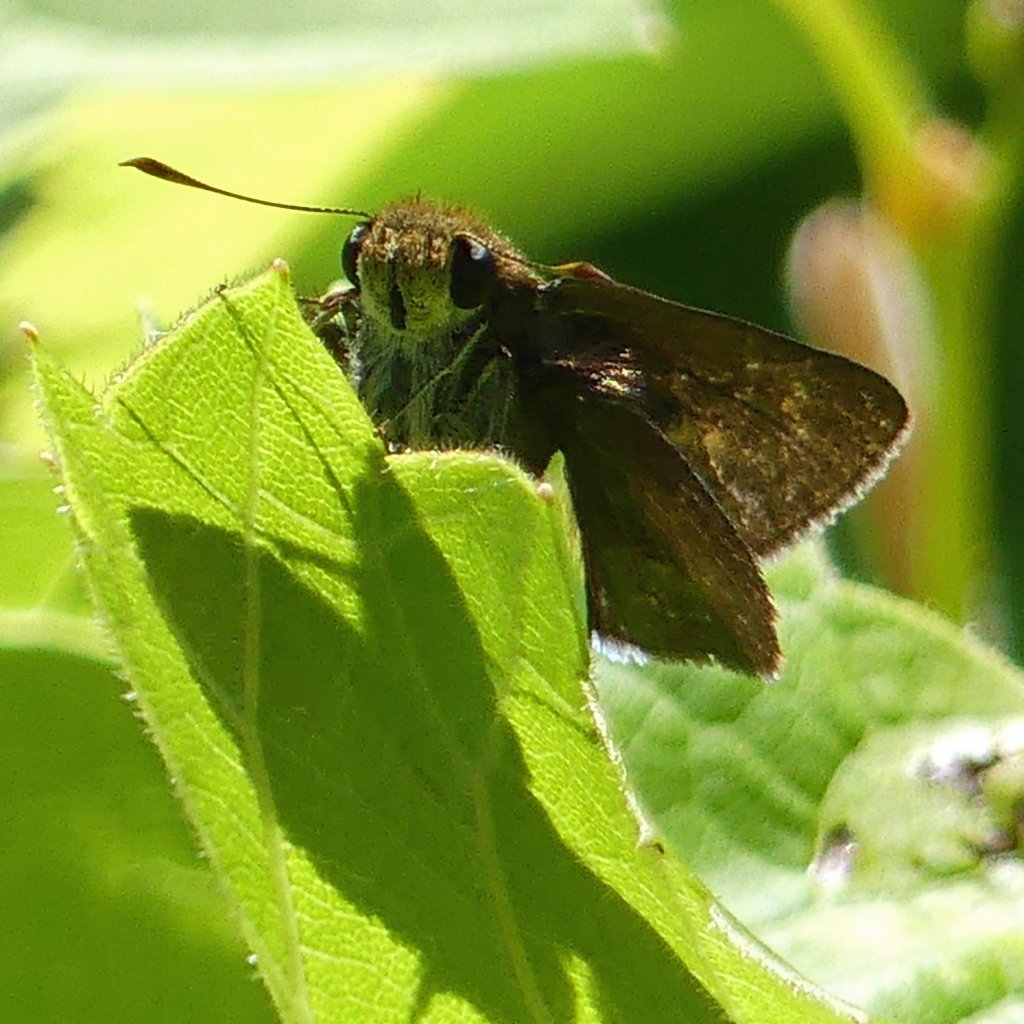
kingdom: Animalia
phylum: Arthropoda
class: Insecta
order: Lepidoptera
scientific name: Lepidoptera
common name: Butterflies
